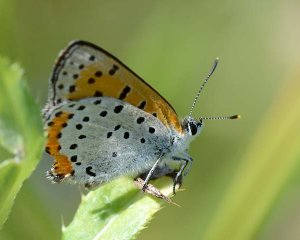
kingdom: Animalia
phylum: Arthropoda
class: Insecta
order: Lepidoptera
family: Sesiidae
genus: Sesia
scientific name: Sesia Lycaena hyllus
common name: Bronze Copper
